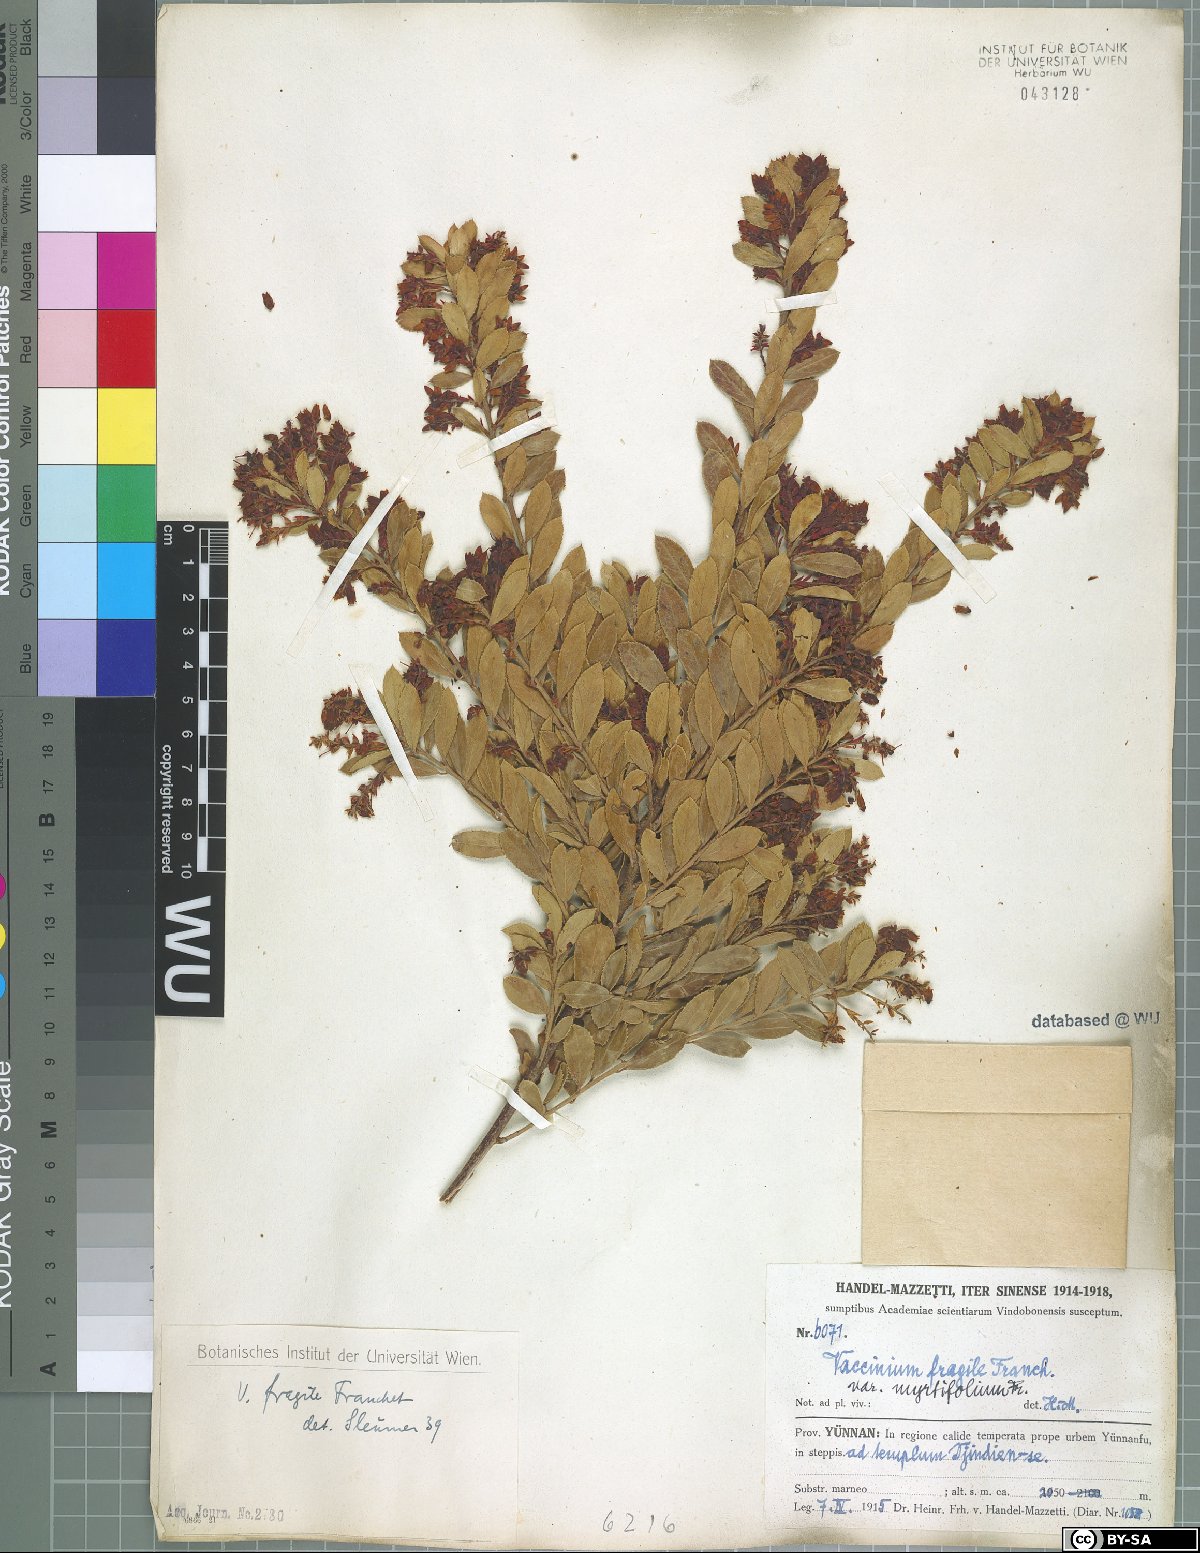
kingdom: Plantae
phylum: Tracheophyta
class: Magnoliopsida
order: Ericales
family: Ericaceae
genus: Vaccinium
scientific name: Vaccinium fragile
